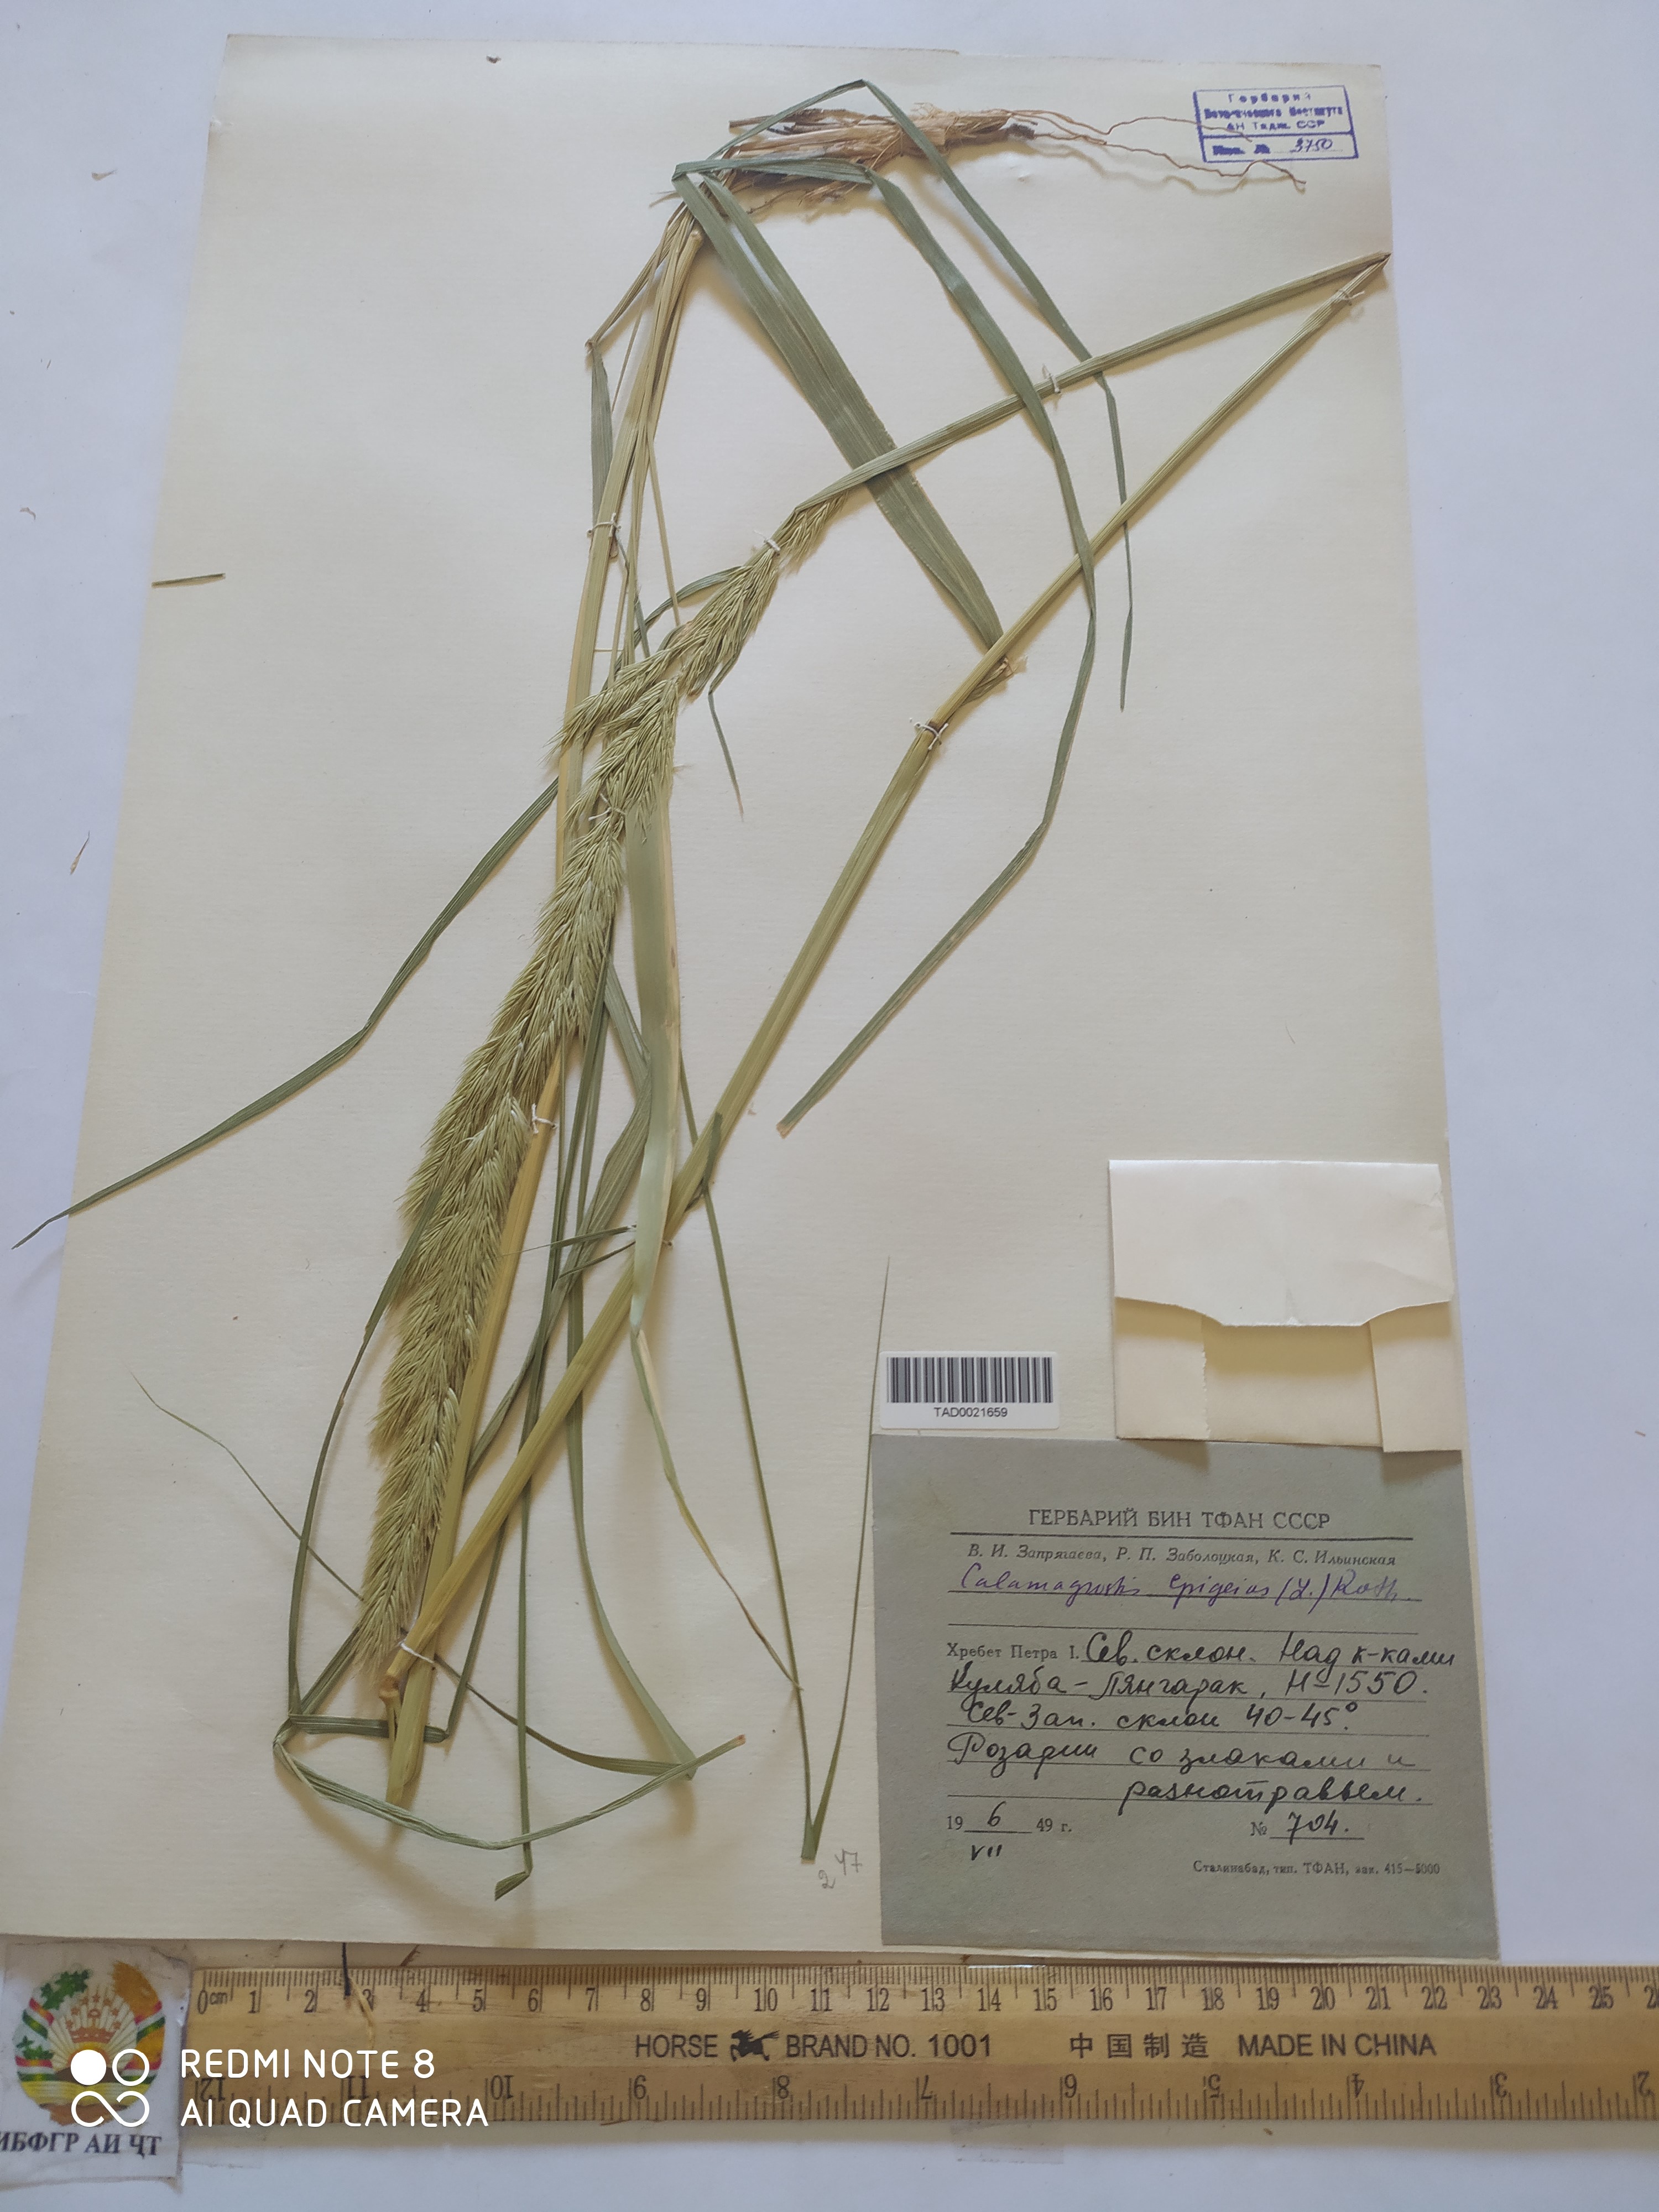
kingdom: Plantae
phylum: Tracheophyta
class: Liliopsida
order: Poales
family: Poaceae
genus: Calamagrostis
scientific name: Calamagrostis epigejos
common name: Wood small-reed
